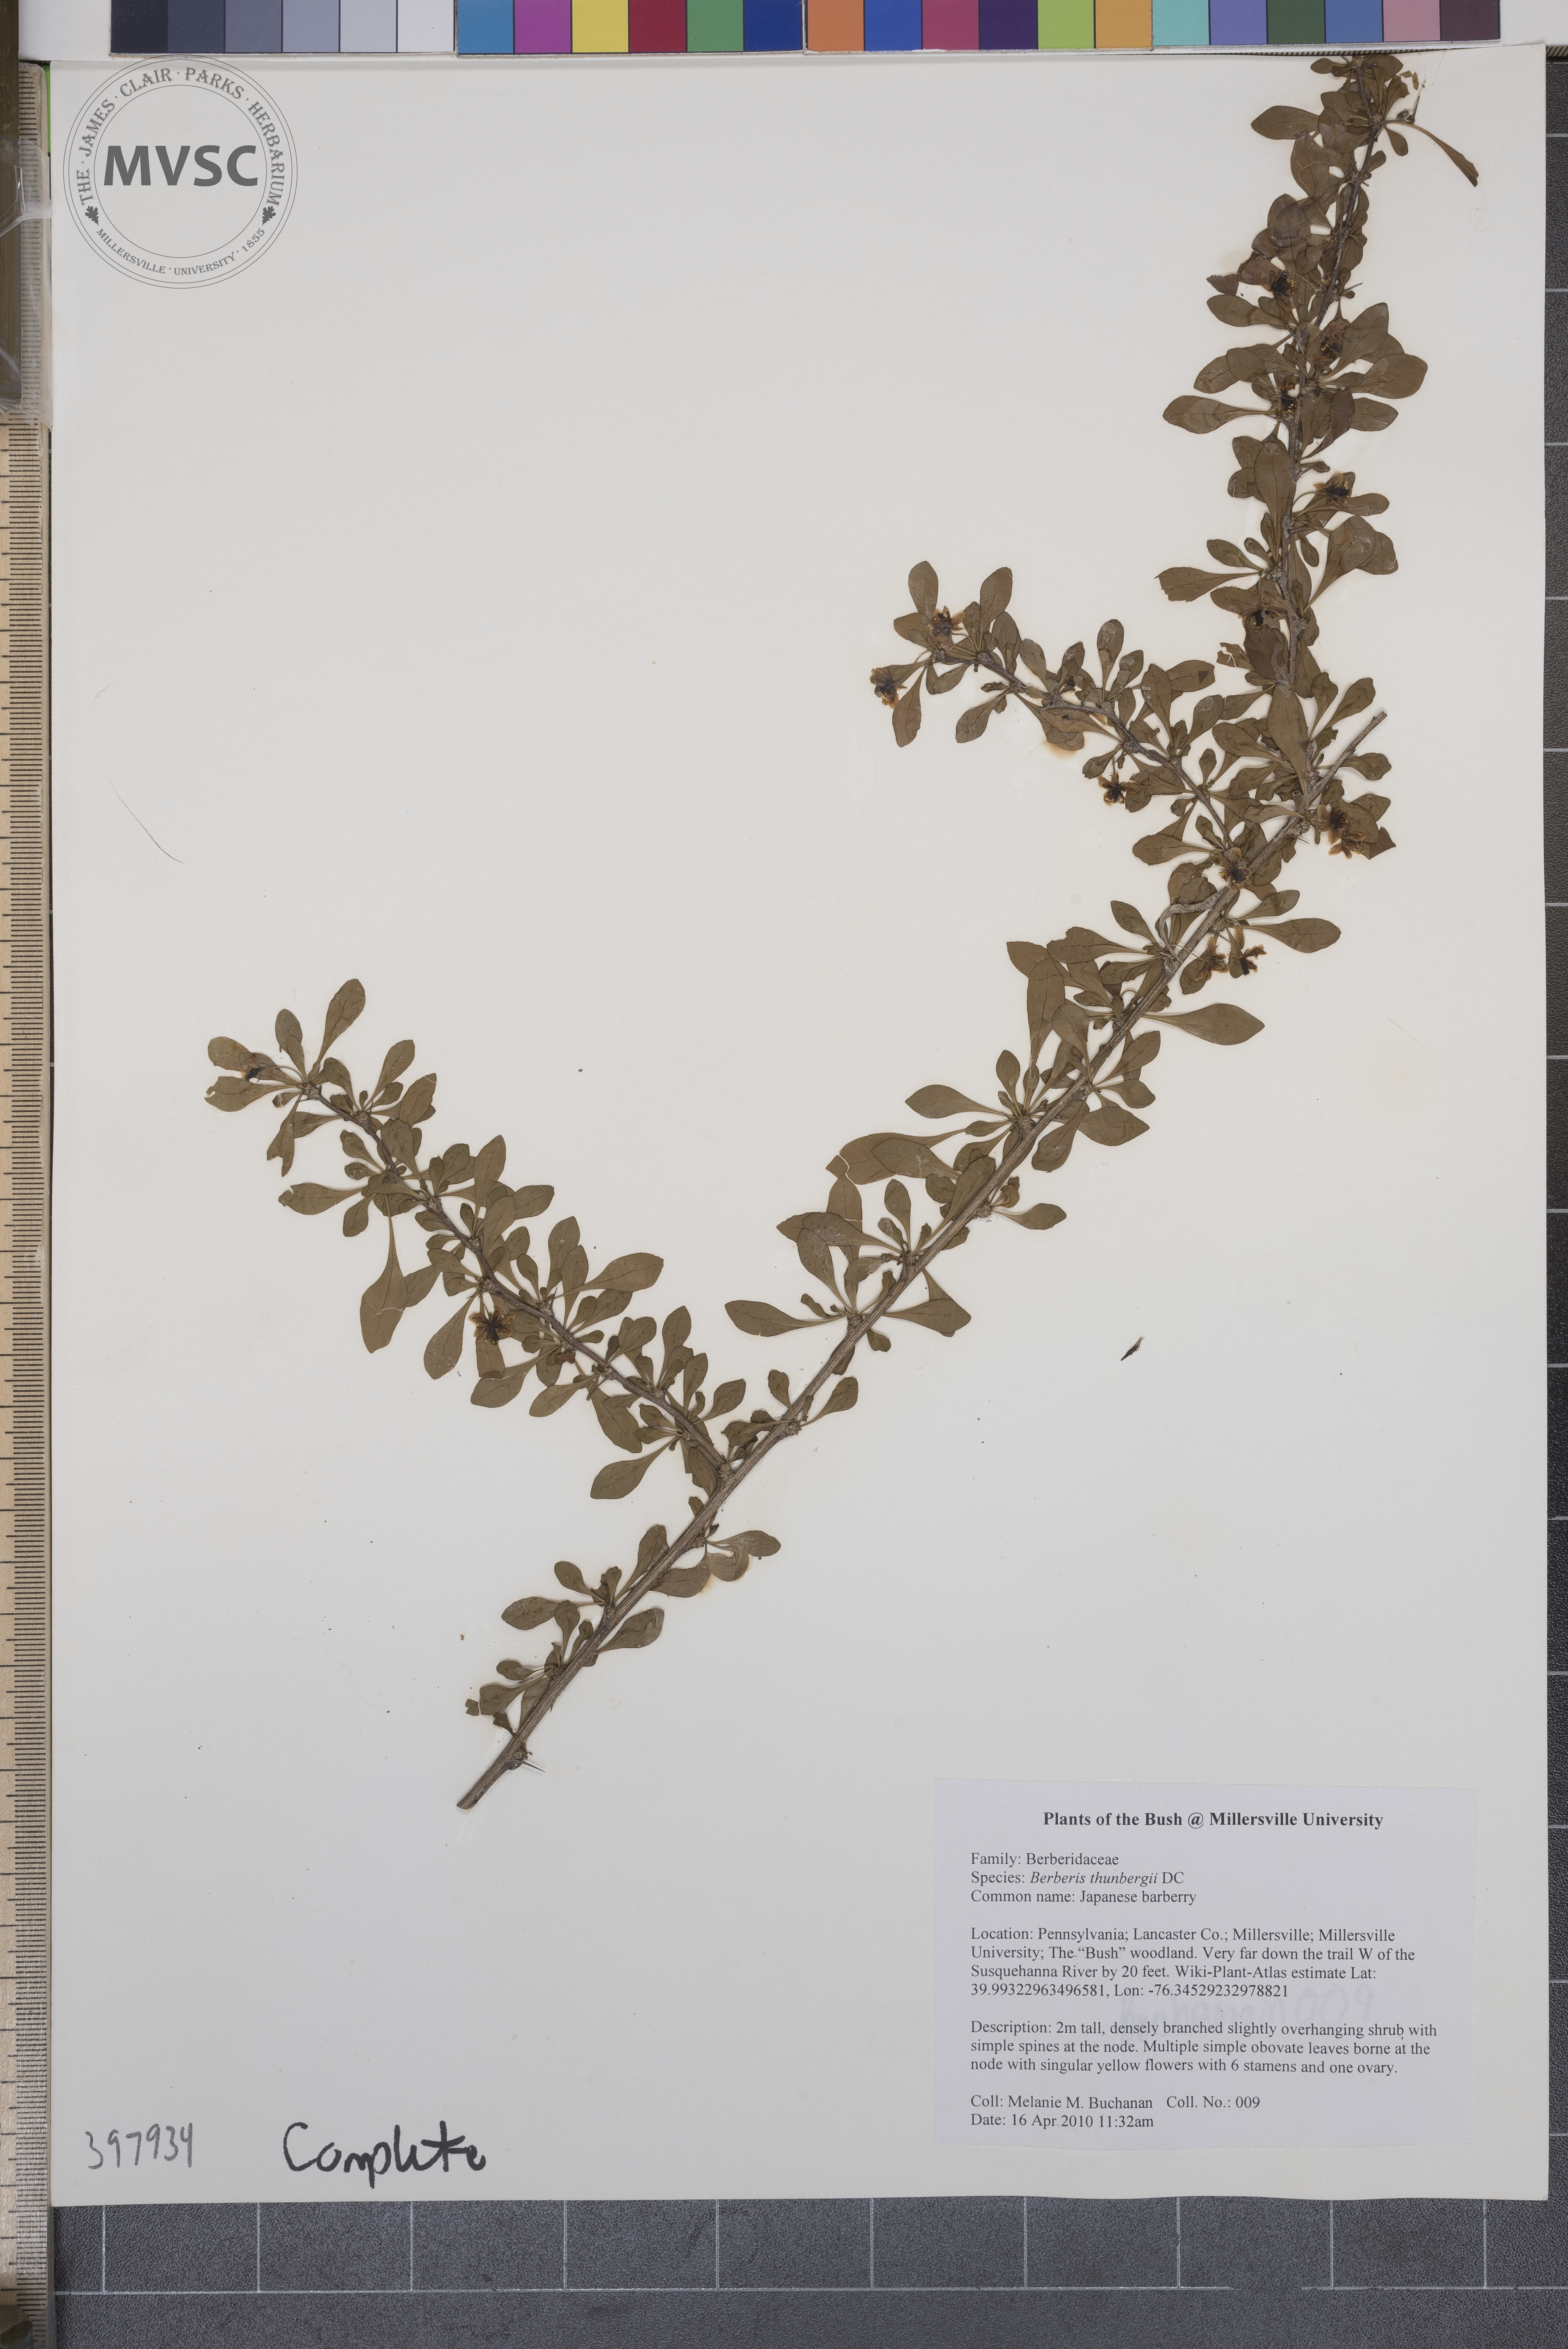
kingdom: Plantae
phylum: Tracheophyta
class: Magnoliopsida
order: Ranunculales
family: Berberidaceae
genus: Berberis
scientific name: Berberis thunbergii
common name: Japanese barberry
